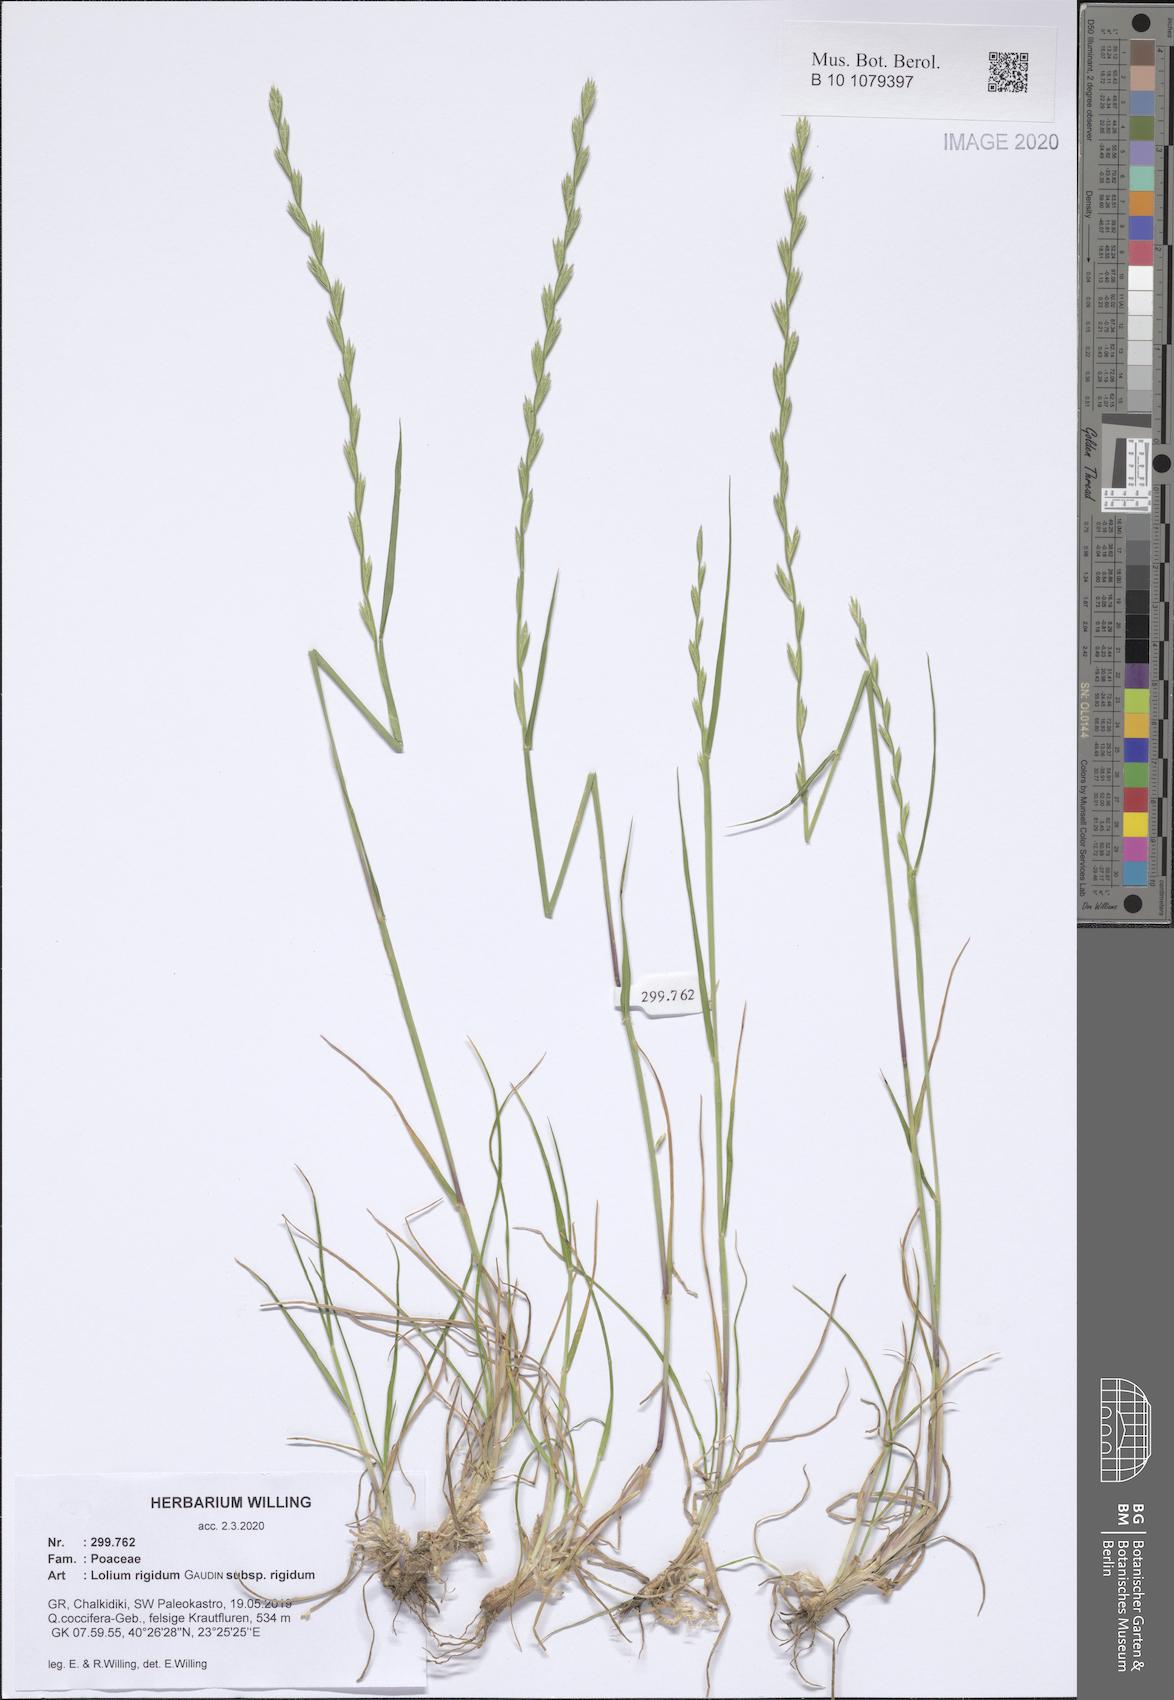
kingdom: Plantae
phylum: Tracheophyta
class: Liliopsida
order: Poales
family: Poaceae
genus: Lolium
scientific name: Lolium rigidum
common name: Wimmera ryegrass
